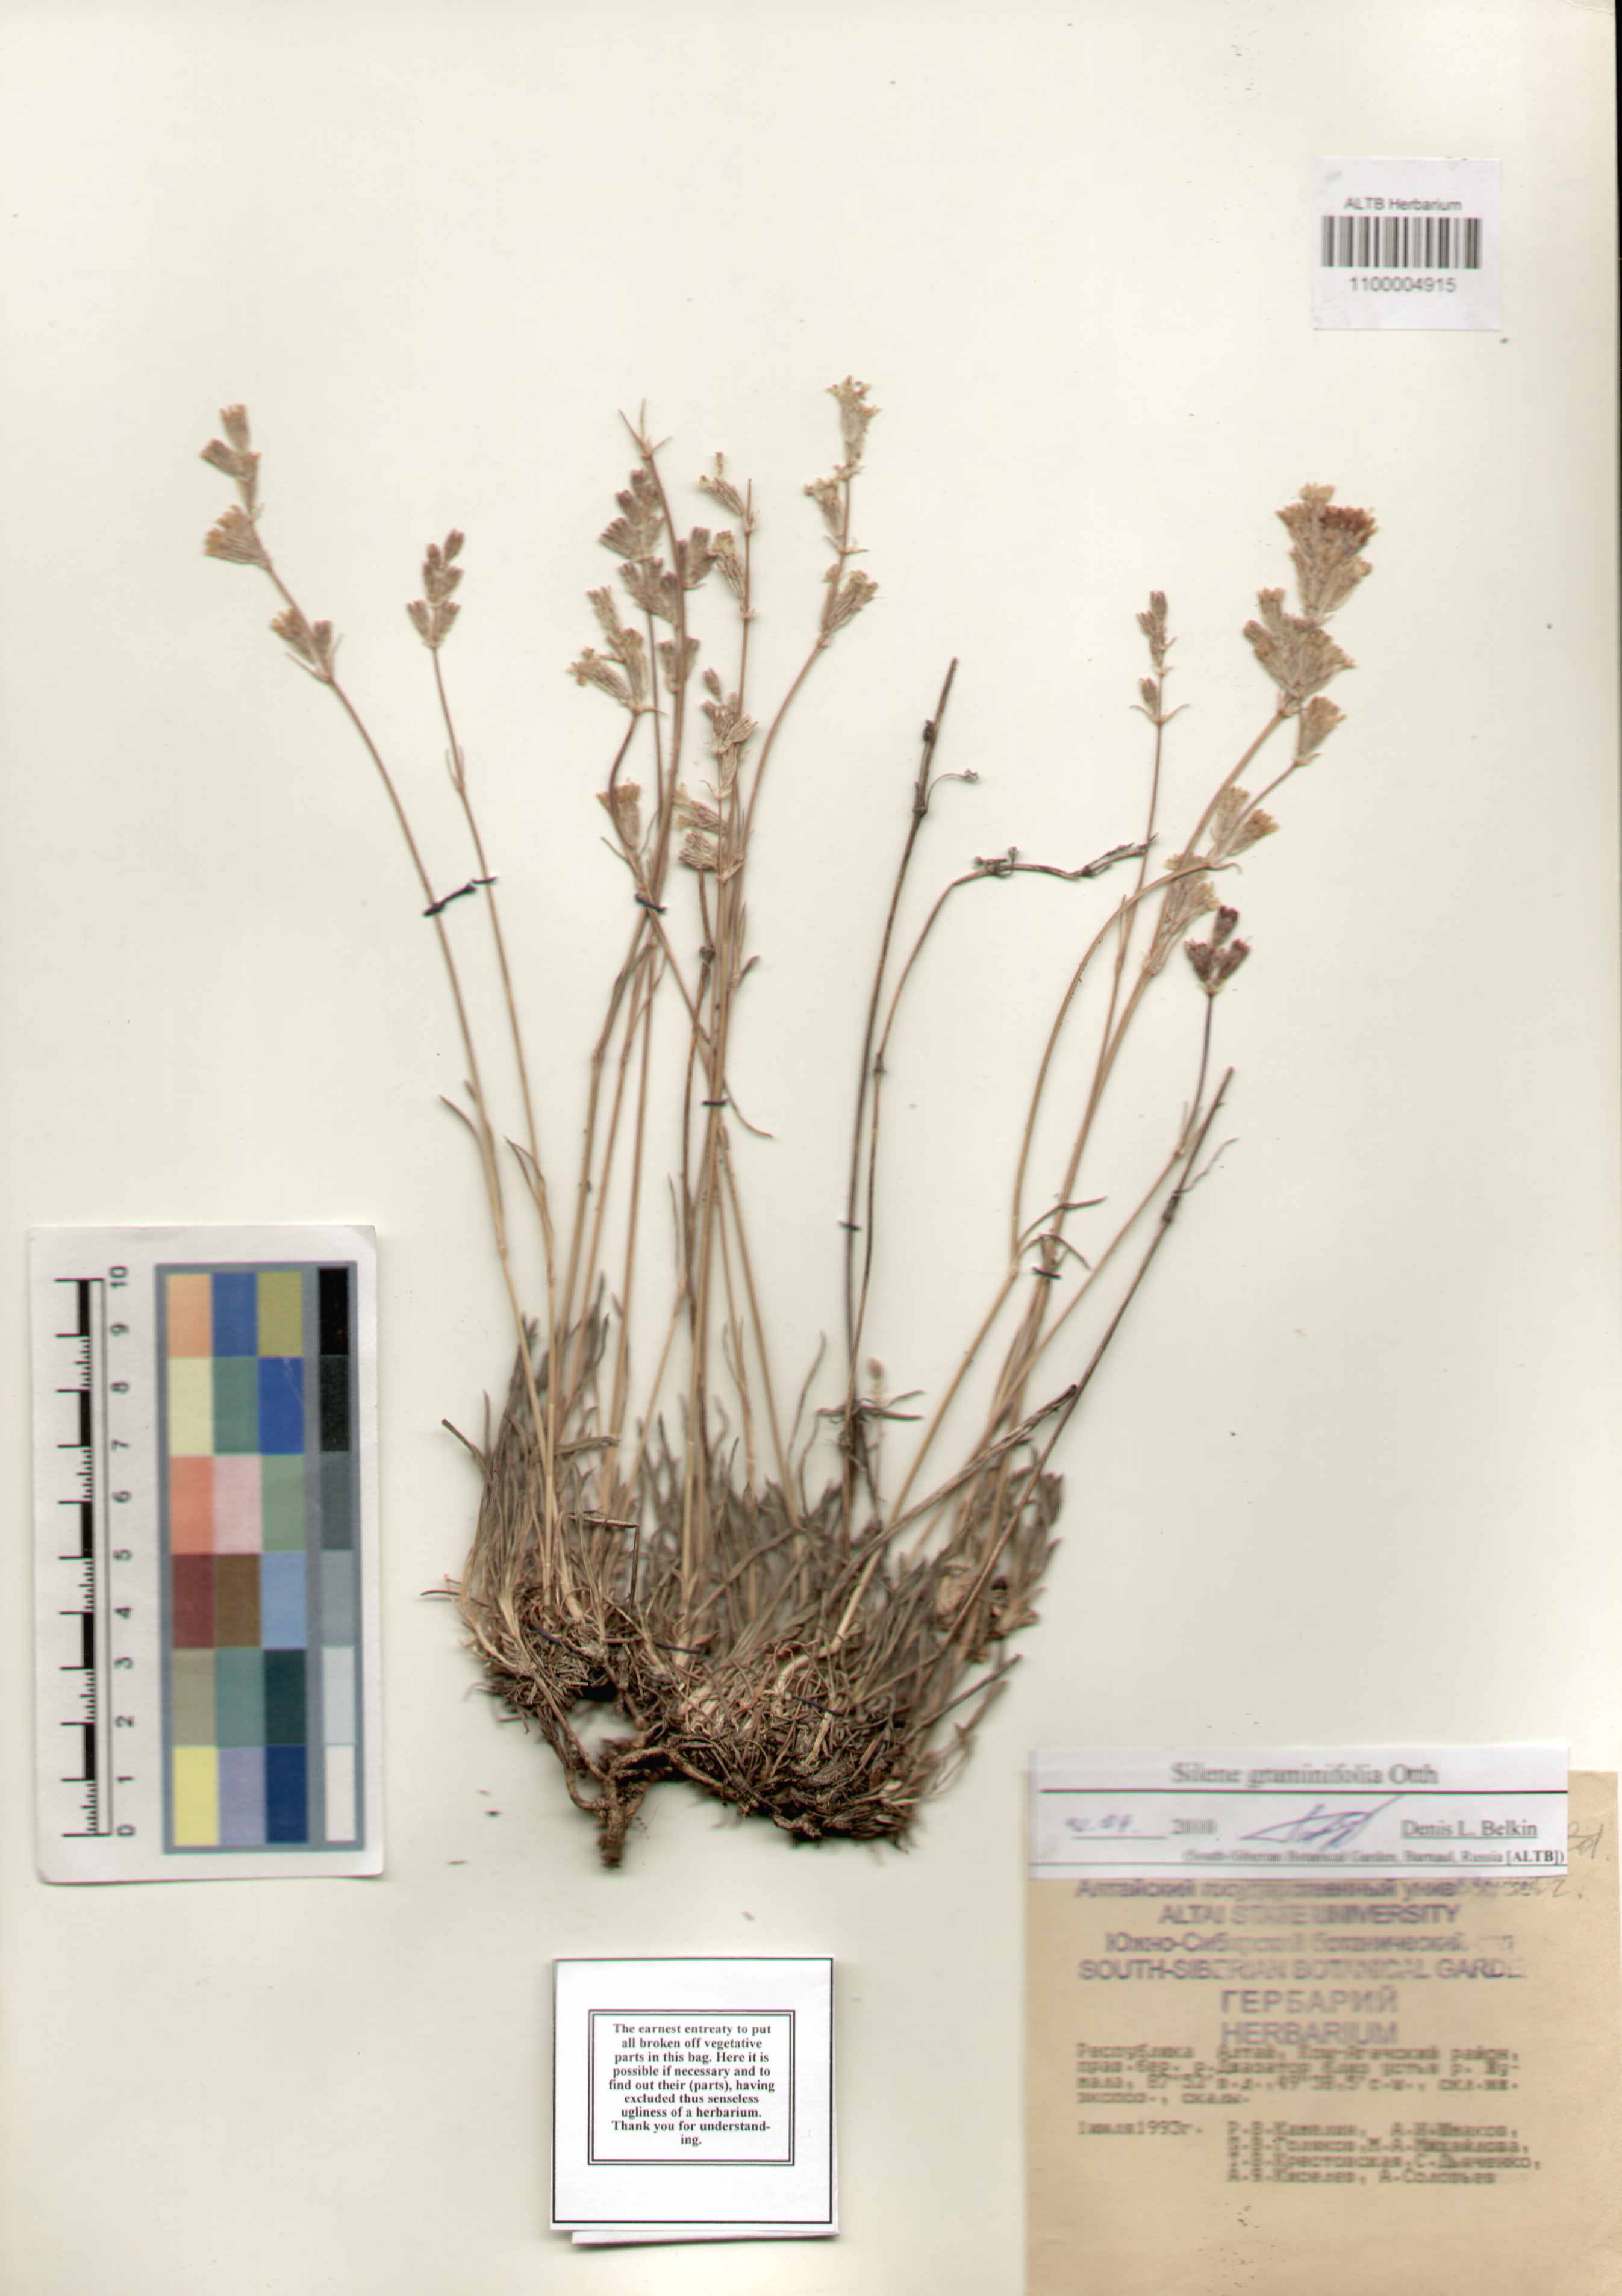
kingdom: Plantae
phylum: Tracheophyta
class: Magnoliopsida
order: Caryophyllales
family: Caryophyllaceae
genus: Silene
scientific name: Silene graminifolia
